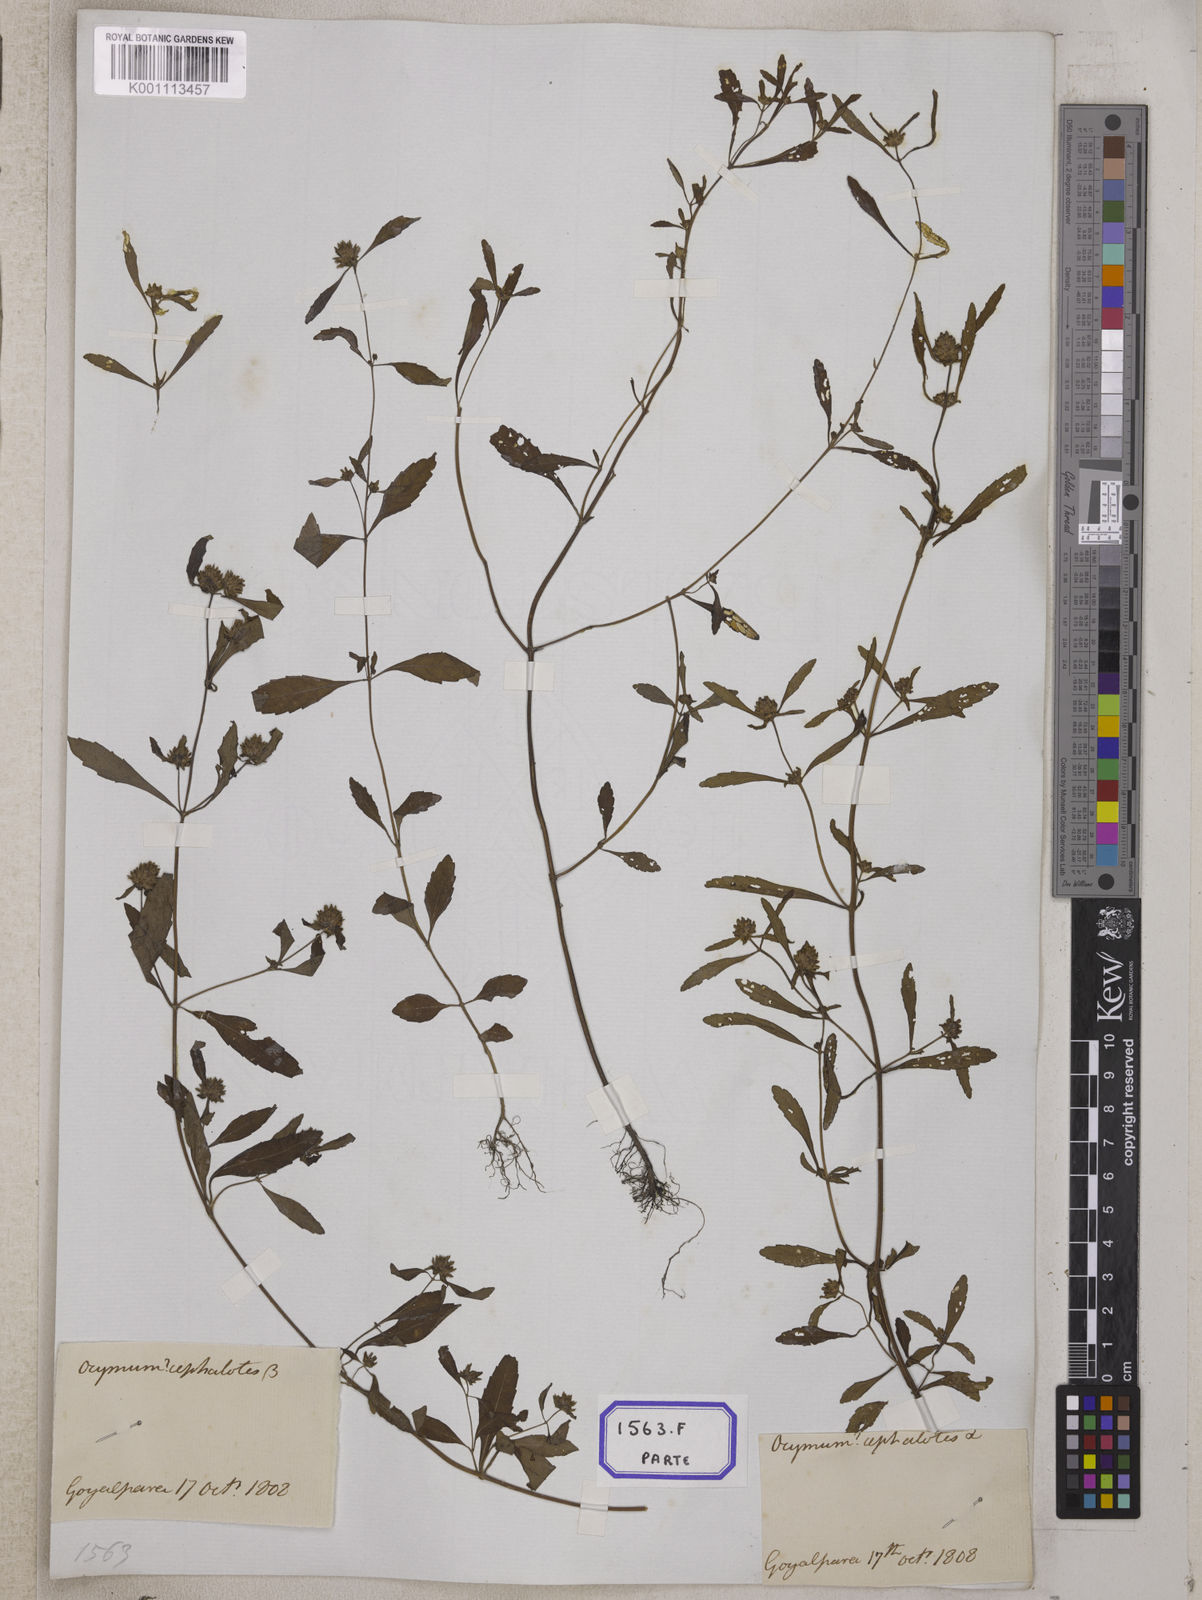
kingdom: Plantae
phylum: Tracheophyta
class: Magnoliopsida
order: Lamiales
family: Lamiaceae
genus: Platostoma
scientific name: Platostoma hispidum
